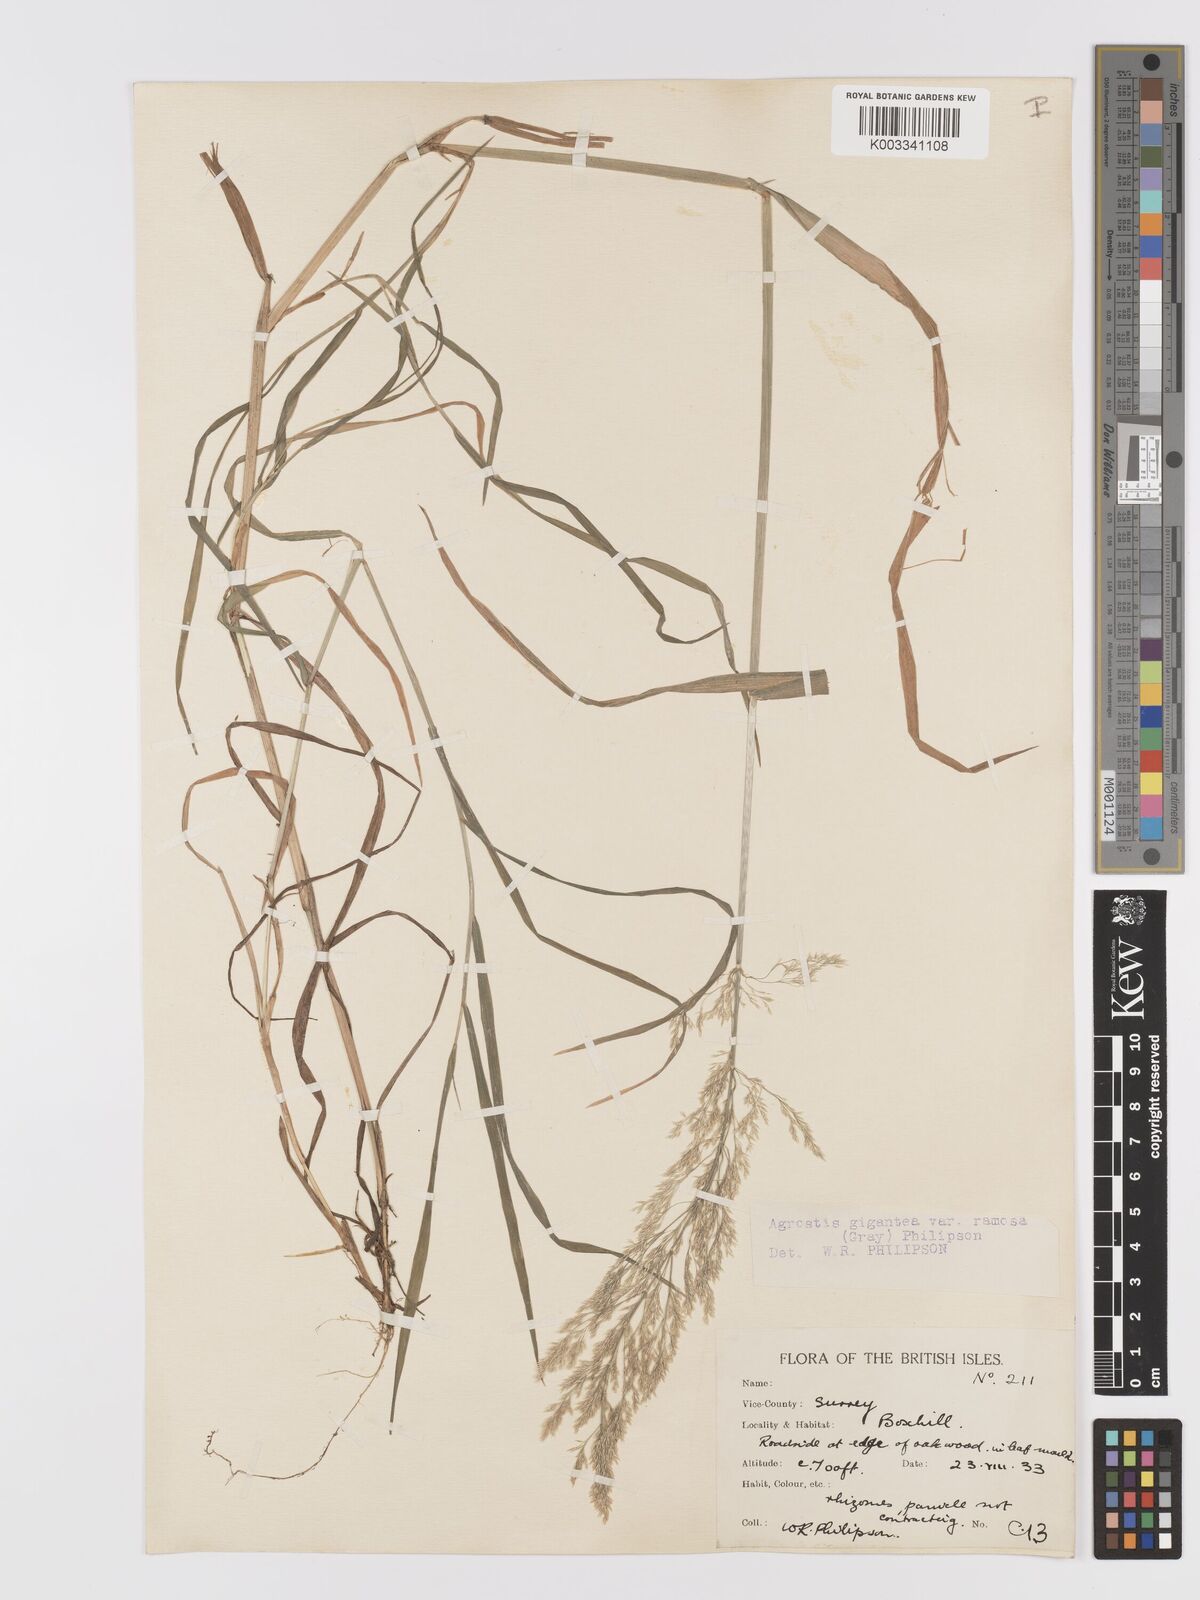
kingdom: Plantae
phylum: Tracheophyta
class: Liliopsida
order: Poales
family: Poaceae
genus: Agrostis
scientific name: Agrostis gigantea
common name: Black bent
